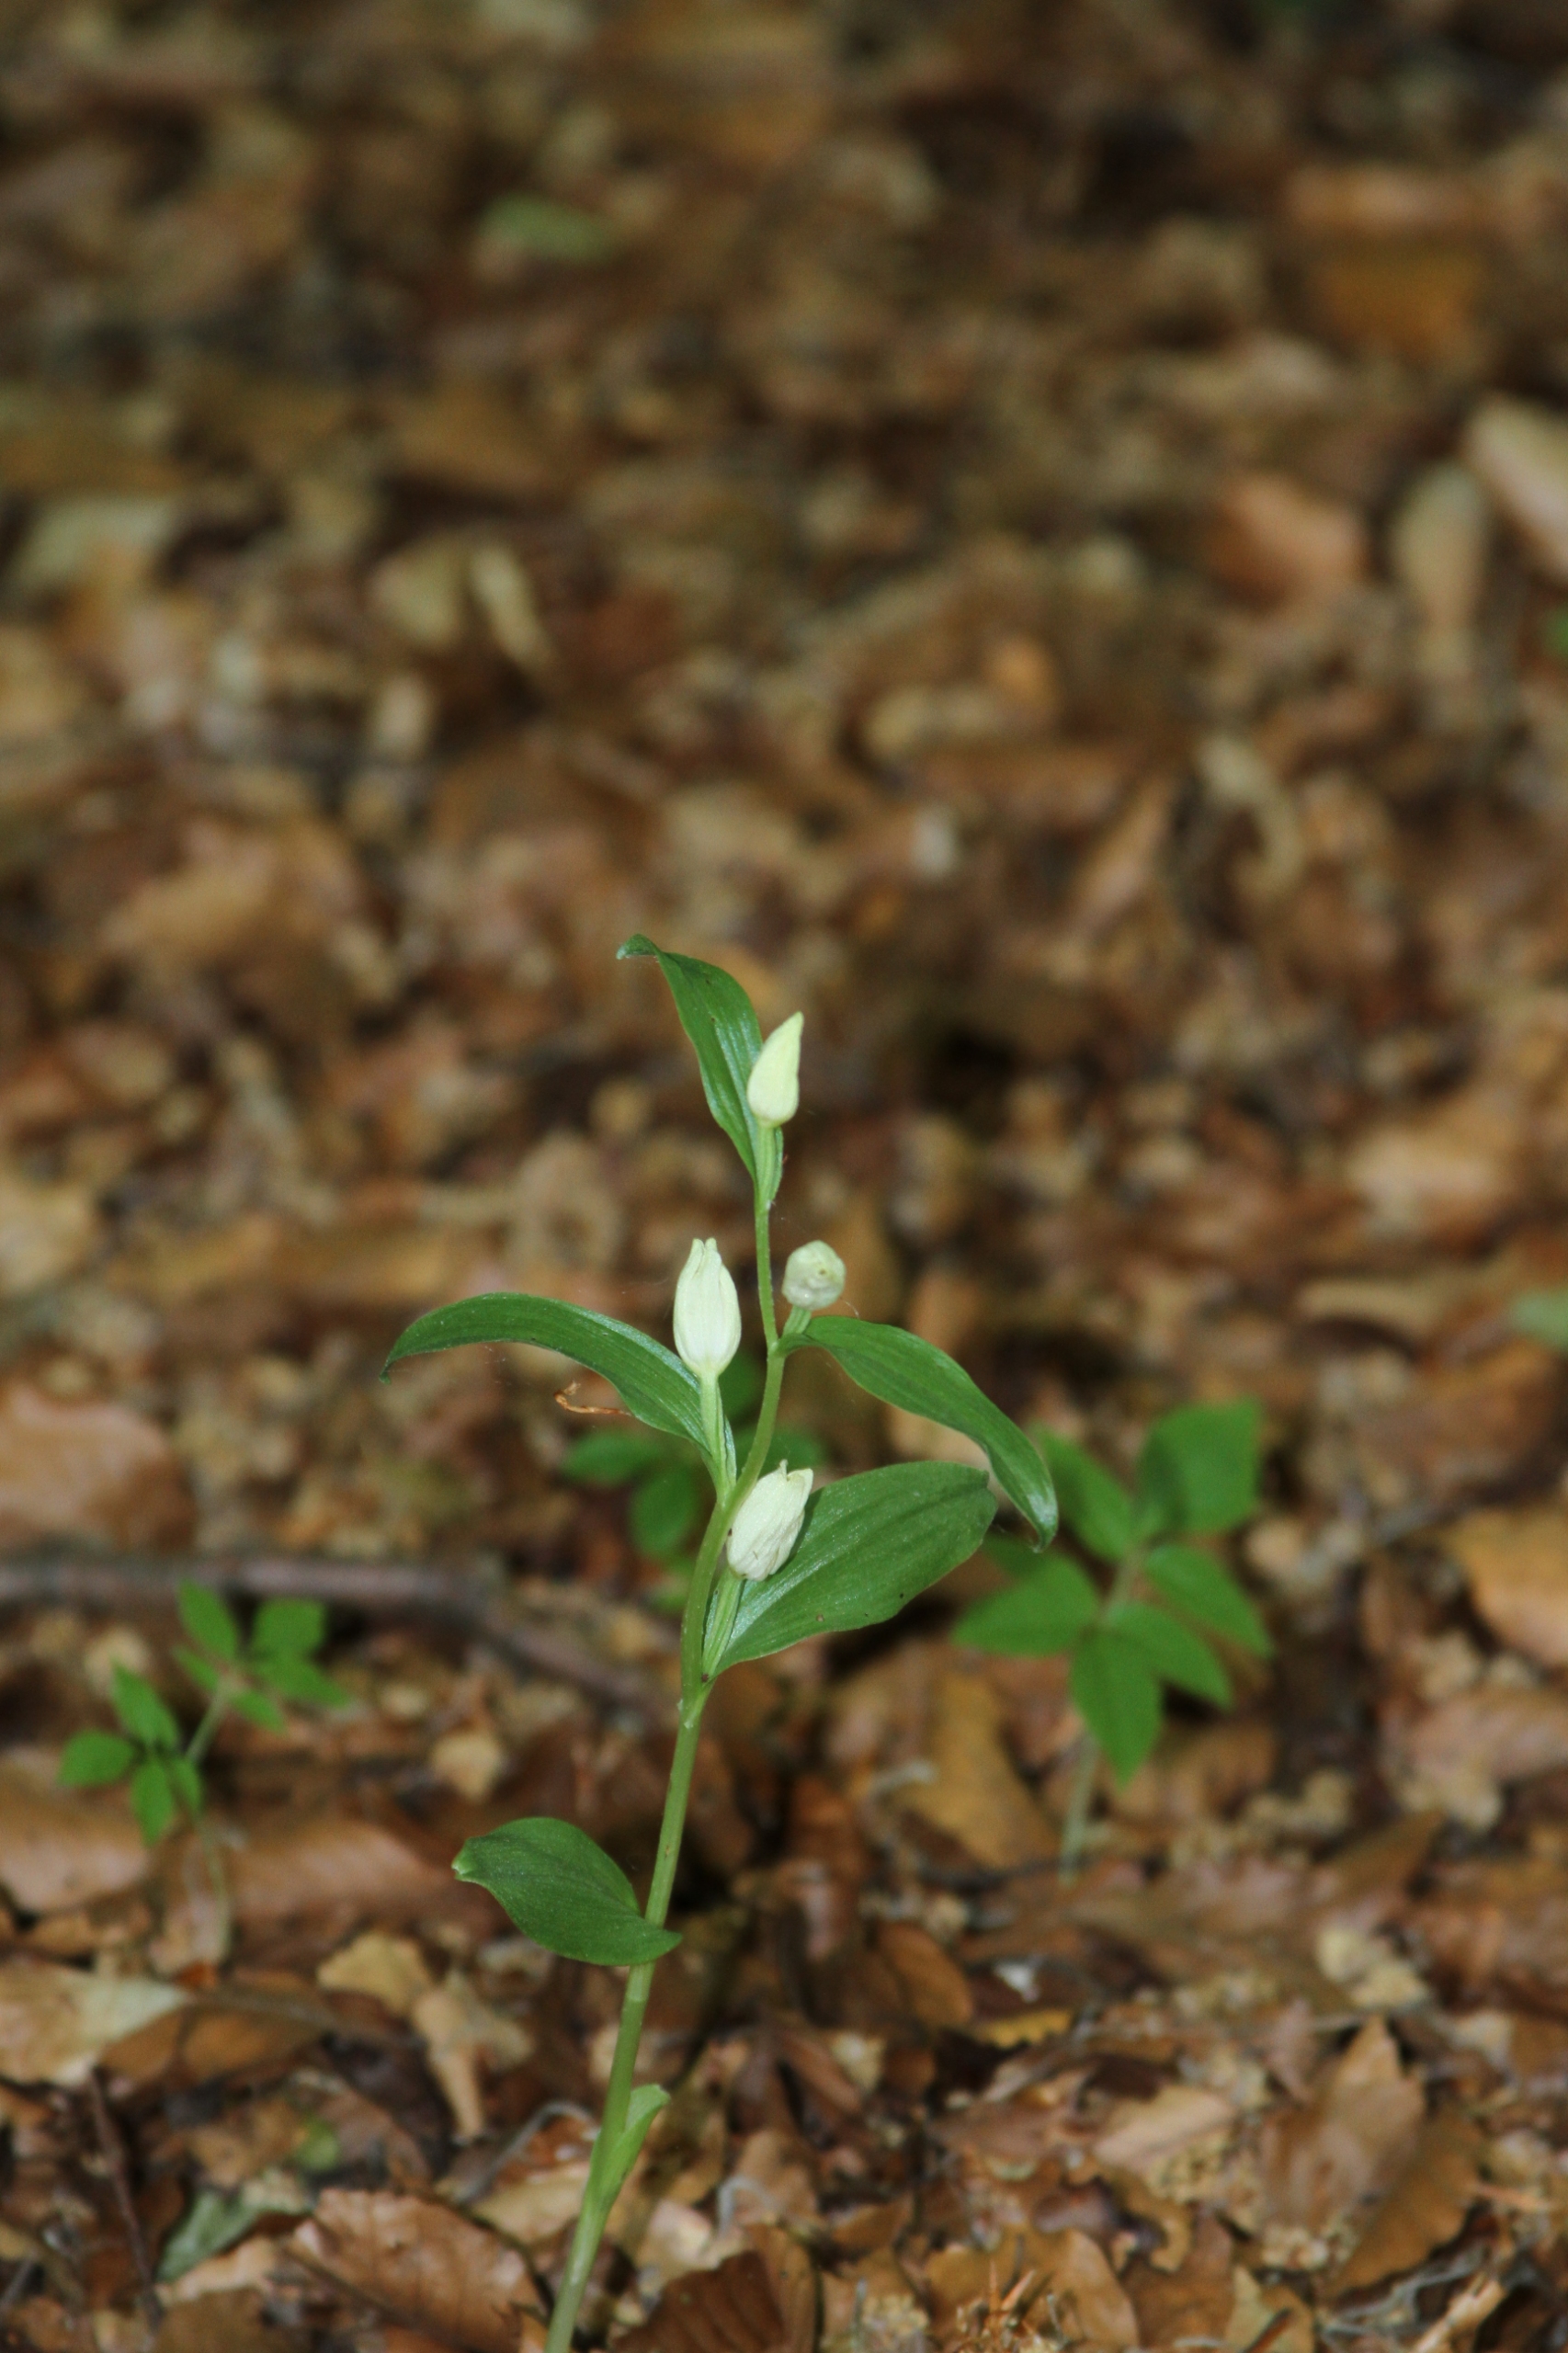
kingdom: Plantae
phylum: Tracheophyta
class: Liliopsida
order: Asparagales
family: Orchidaceae
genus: Cephalanthera
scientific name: Cephalanthera damasonium
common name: Hvidgul skovlilje
